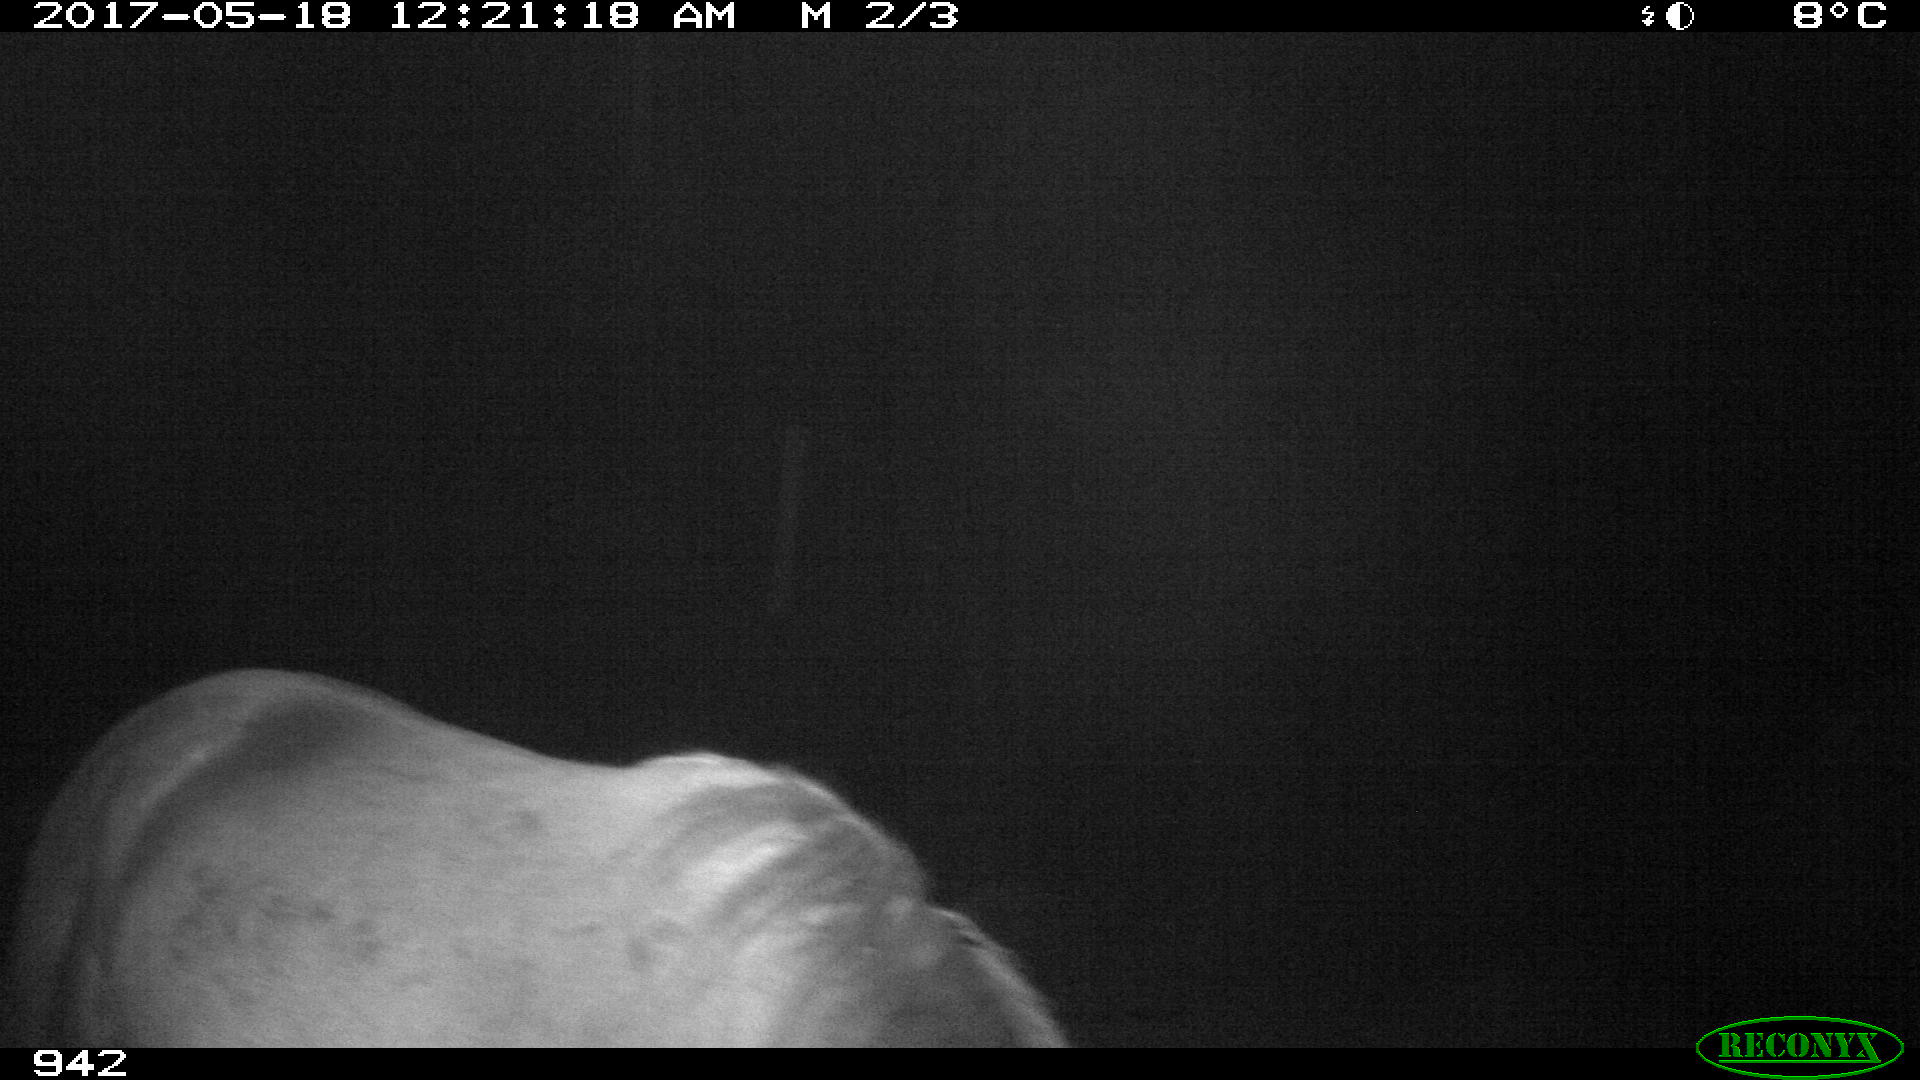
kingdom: Animalia
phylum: Chordata
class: Mammalia
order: Perissodactyla
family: Equidae
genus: Equus
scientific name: Equus caballus
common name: Horse
